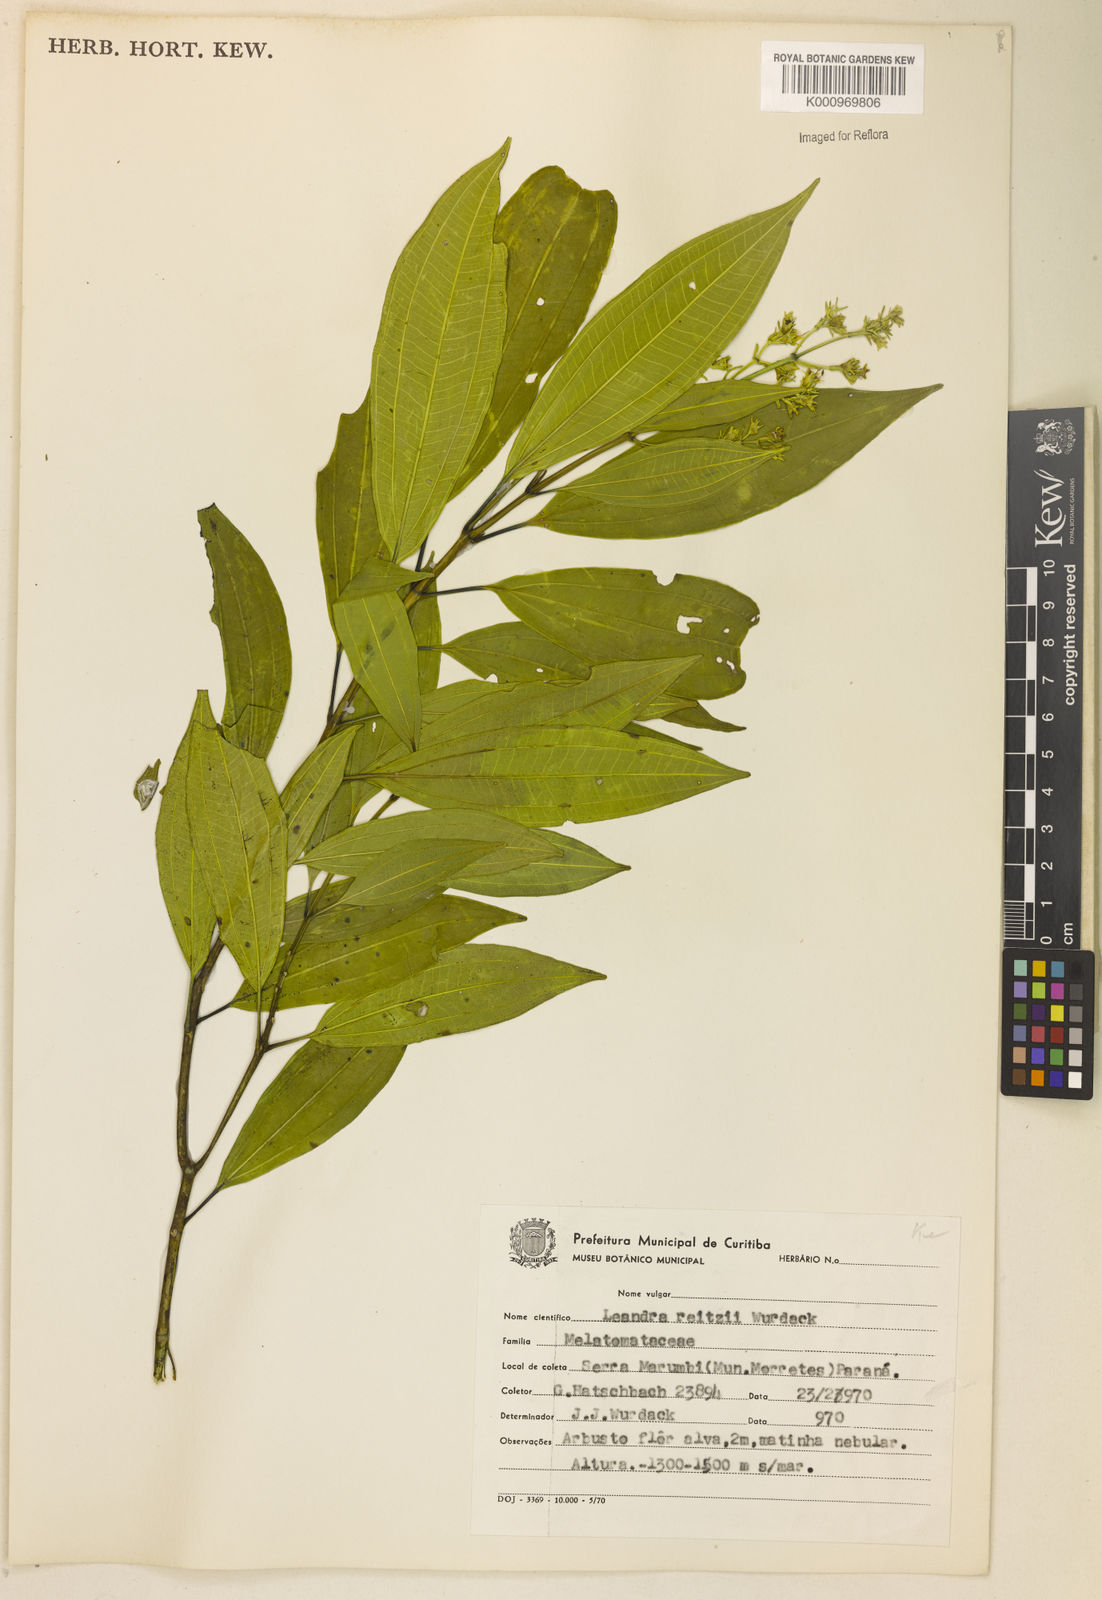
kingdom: Plantae
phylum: Tracheophyta
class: Magnoliopsida
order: Myrtales
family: Melastomataceae
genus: Miconia
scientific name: Miconia reitzii
